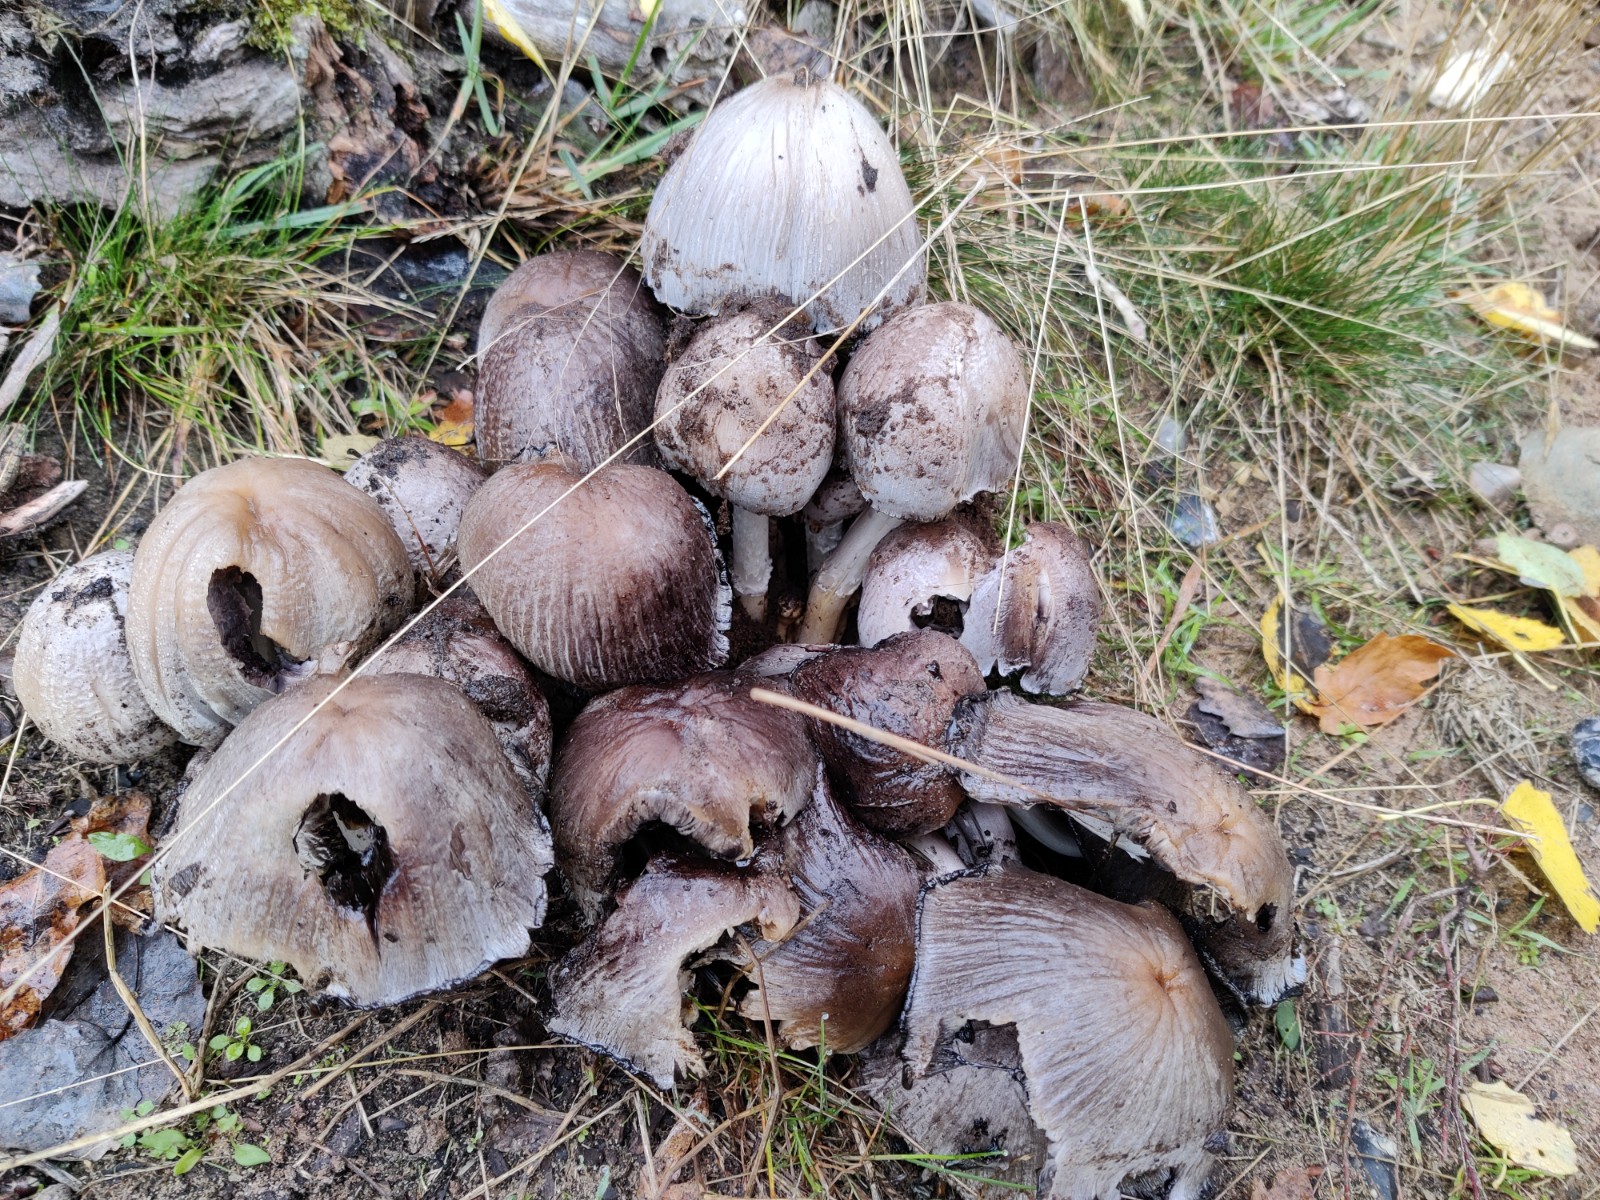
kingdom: Fungi
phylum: Basidiomycota
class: Agaricomycetes
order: Agaricales
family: Psathyrellaceae
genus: Coprinopsis
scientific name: Coprinopsis atramentaria
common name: almindelig blækhat
